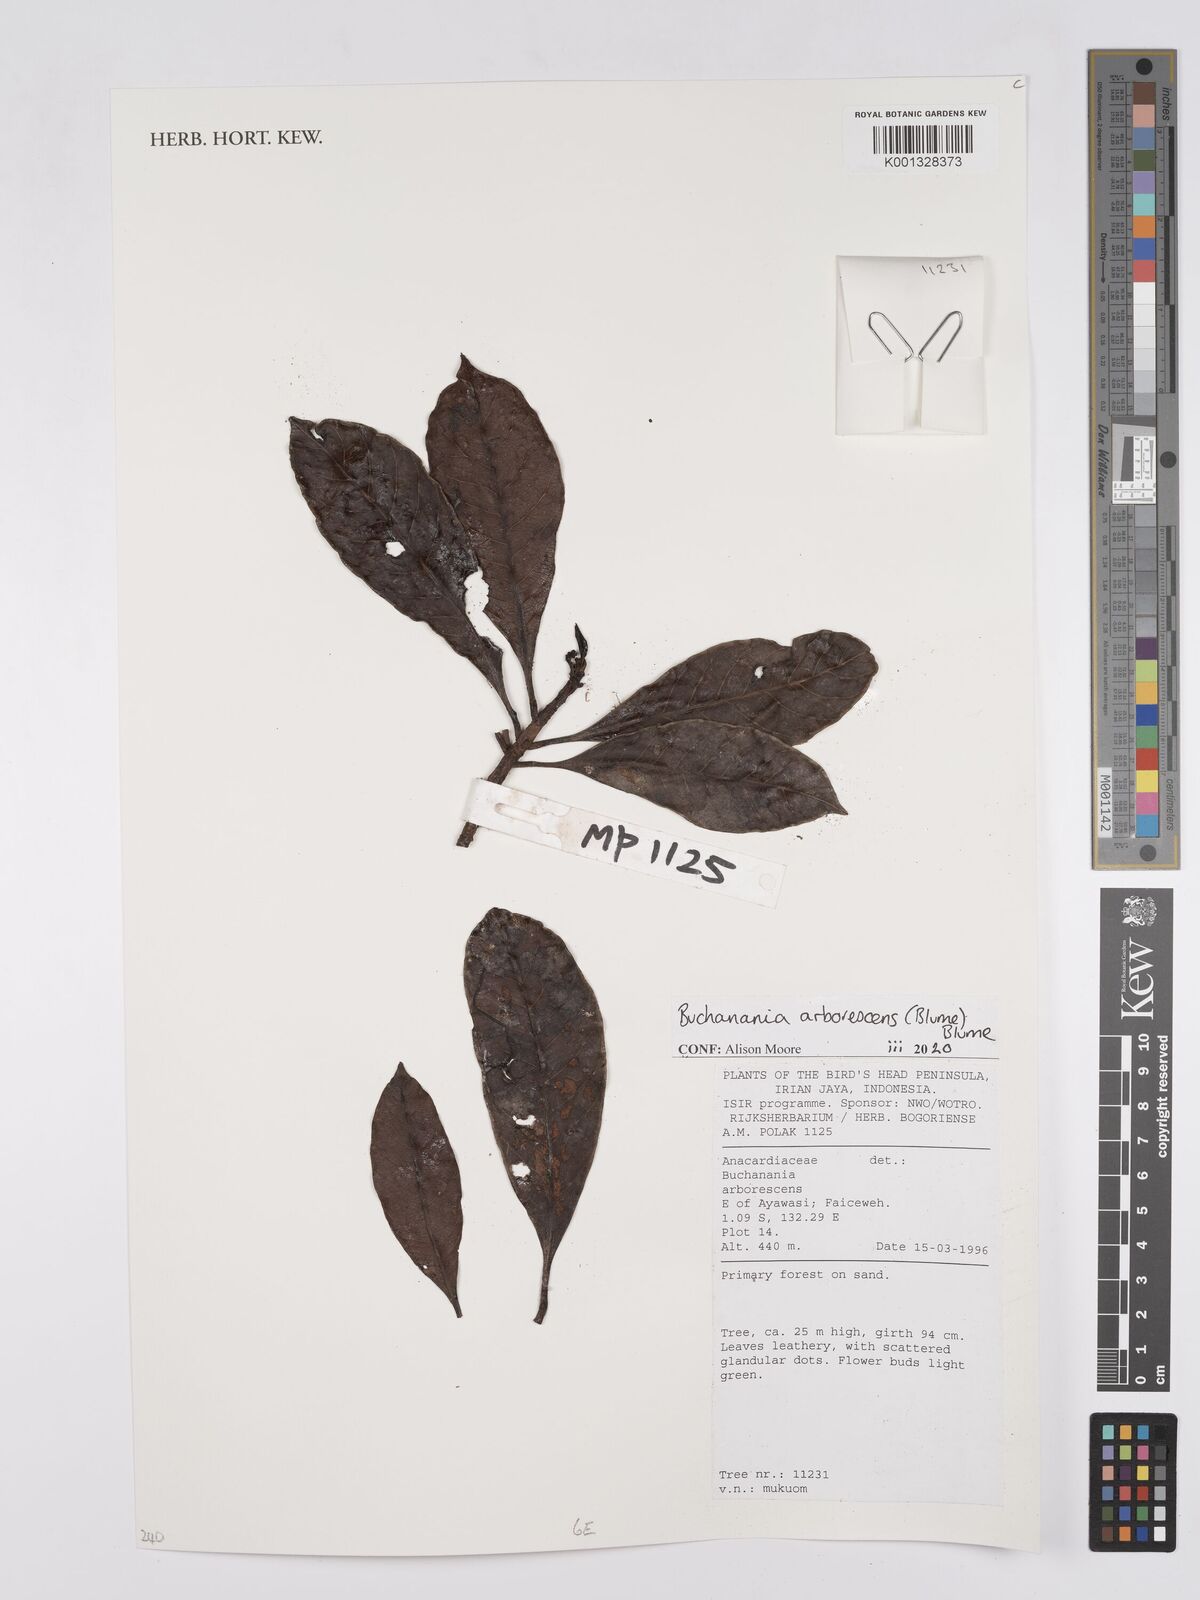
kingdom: Plantae
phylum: Tracheophyta
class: Magnoliopsida
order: Sapindales
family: Anacardiaceae
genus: Buchanania
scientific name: Buchanania arborescens
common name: Sparrow’s mango
